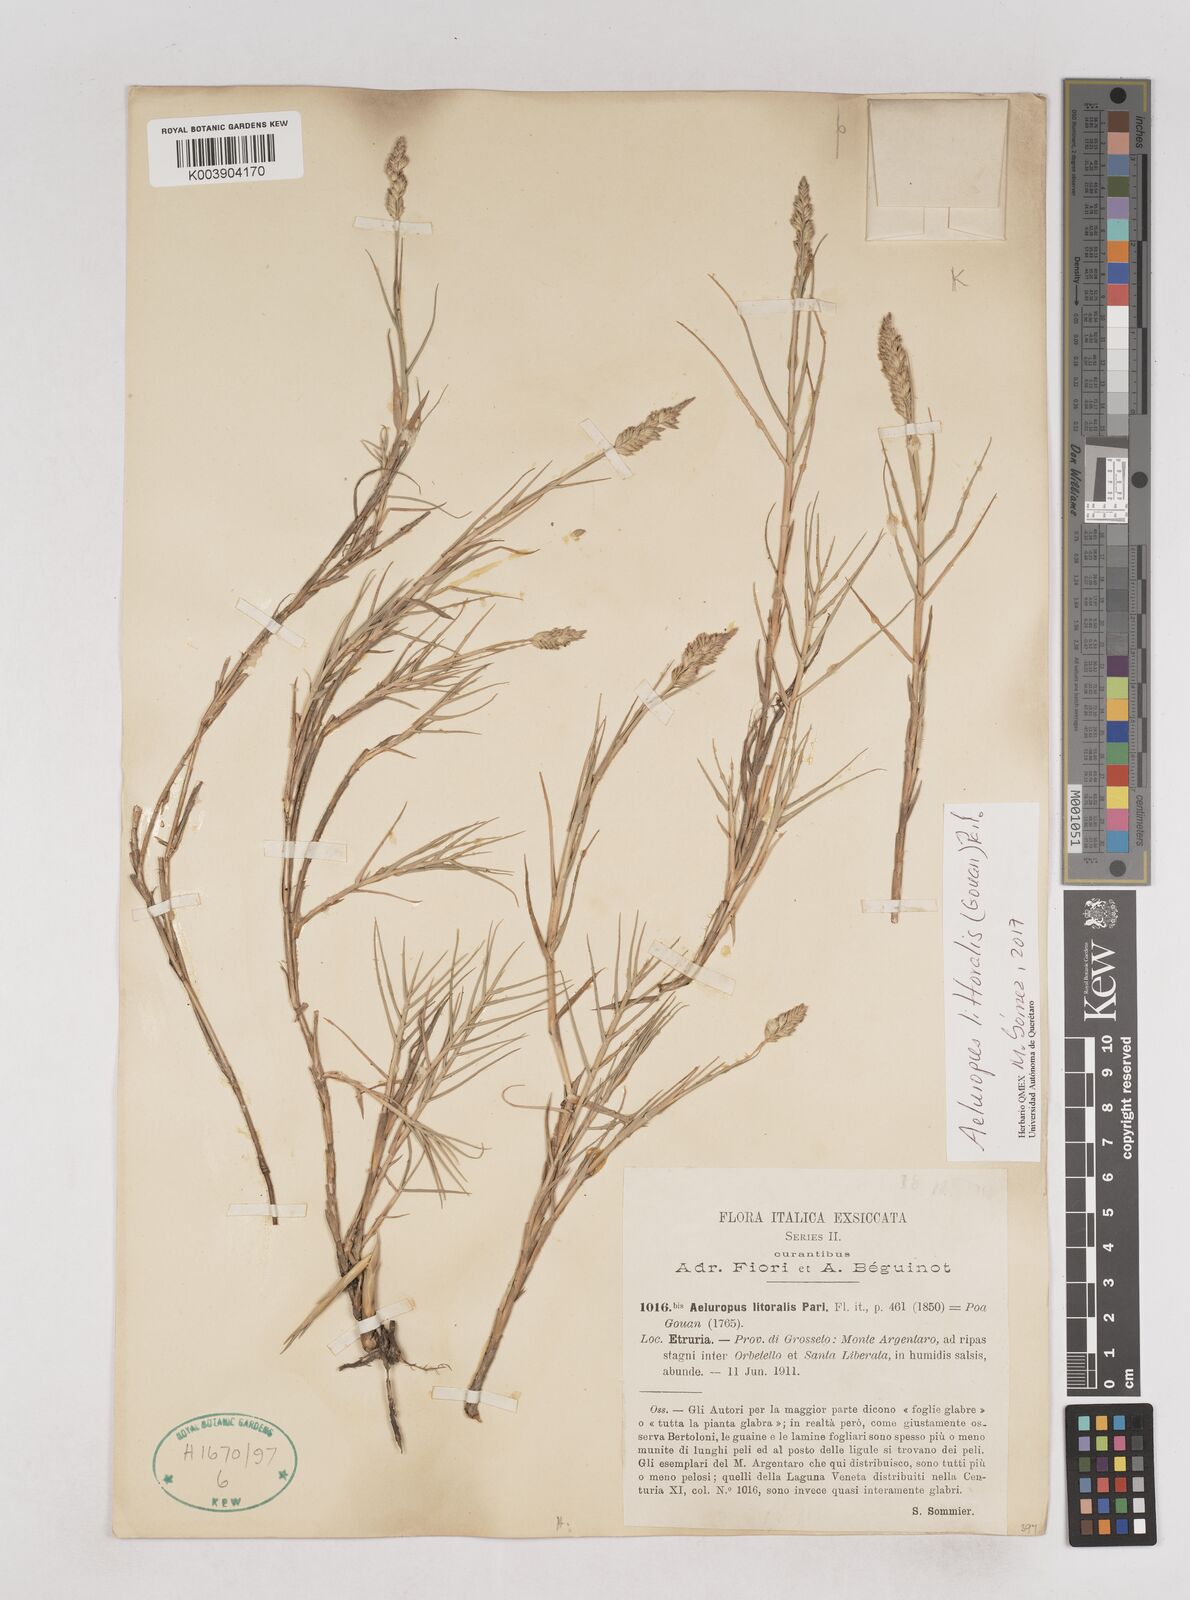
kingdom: Plantae
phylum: Tracheophyta
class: Liliopsida
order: Poales
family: Poaceae
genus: Aeluropus
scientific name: Aeluropus littoralis
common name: Indian walnut
